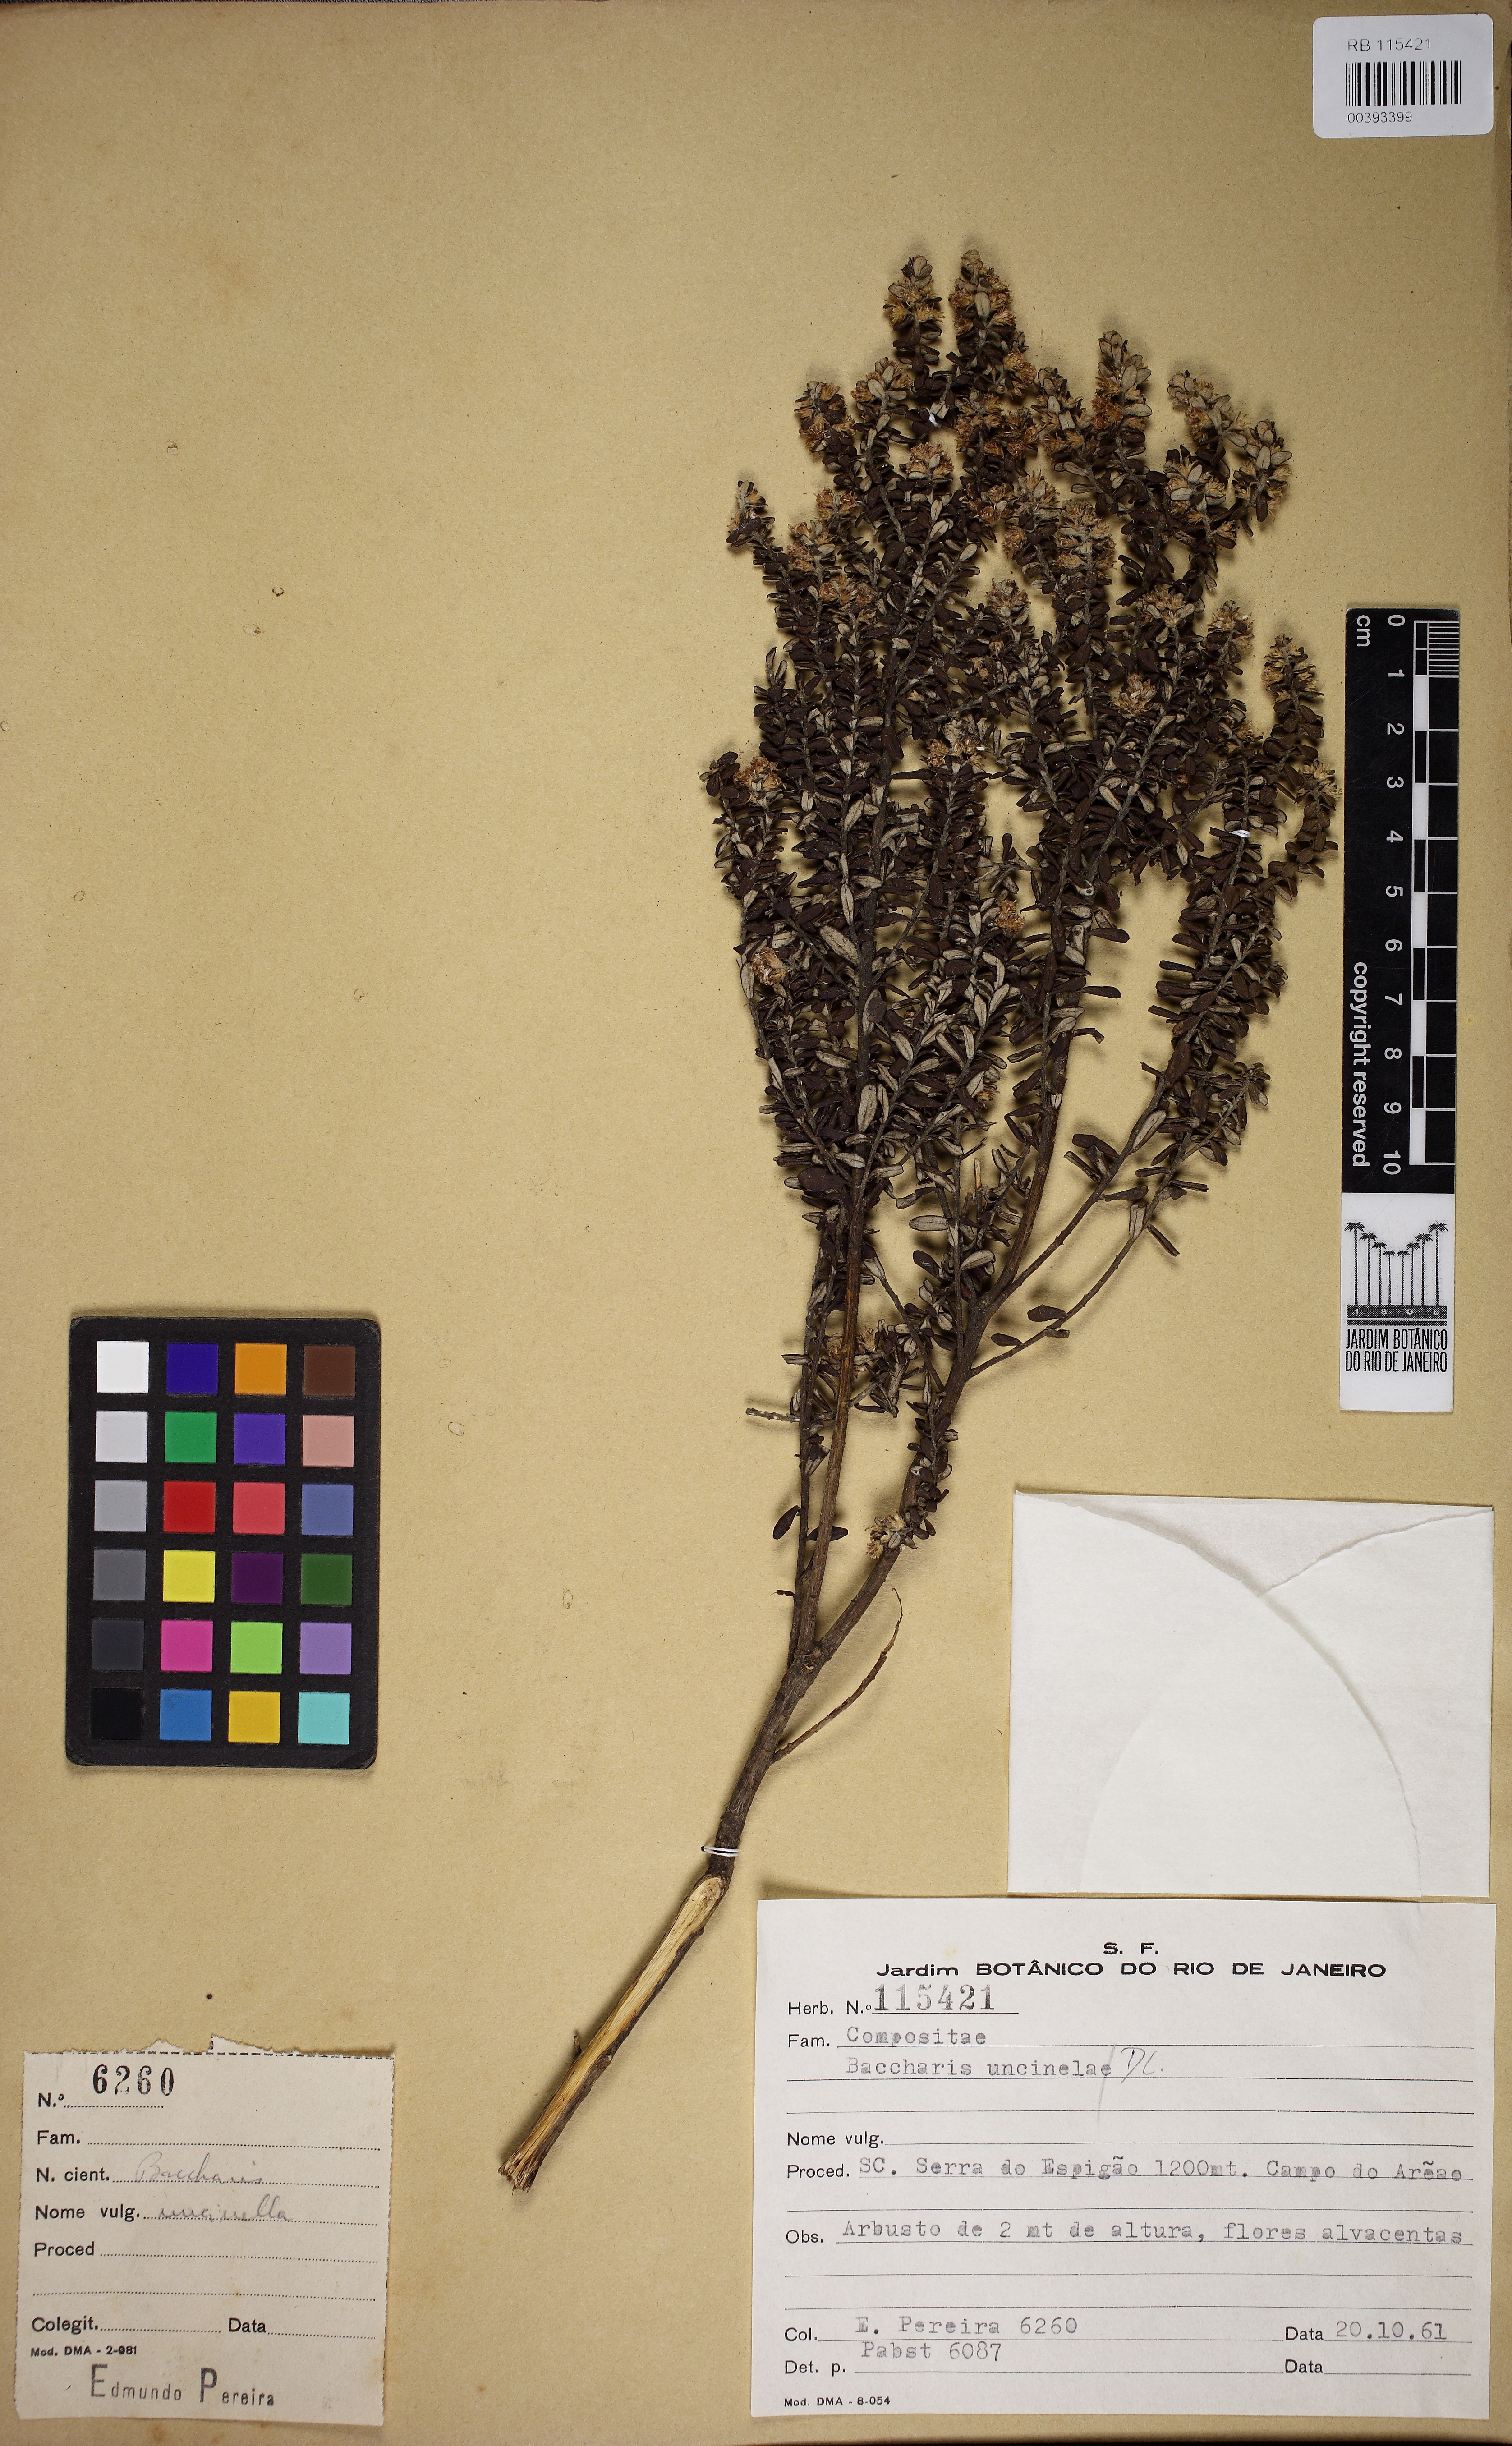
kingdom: Plantae
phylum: Tracheophyta
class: Magnoliopsida
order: Asterales
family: Asteraceae
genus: Baccharis
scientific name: Baccharis uncinella
